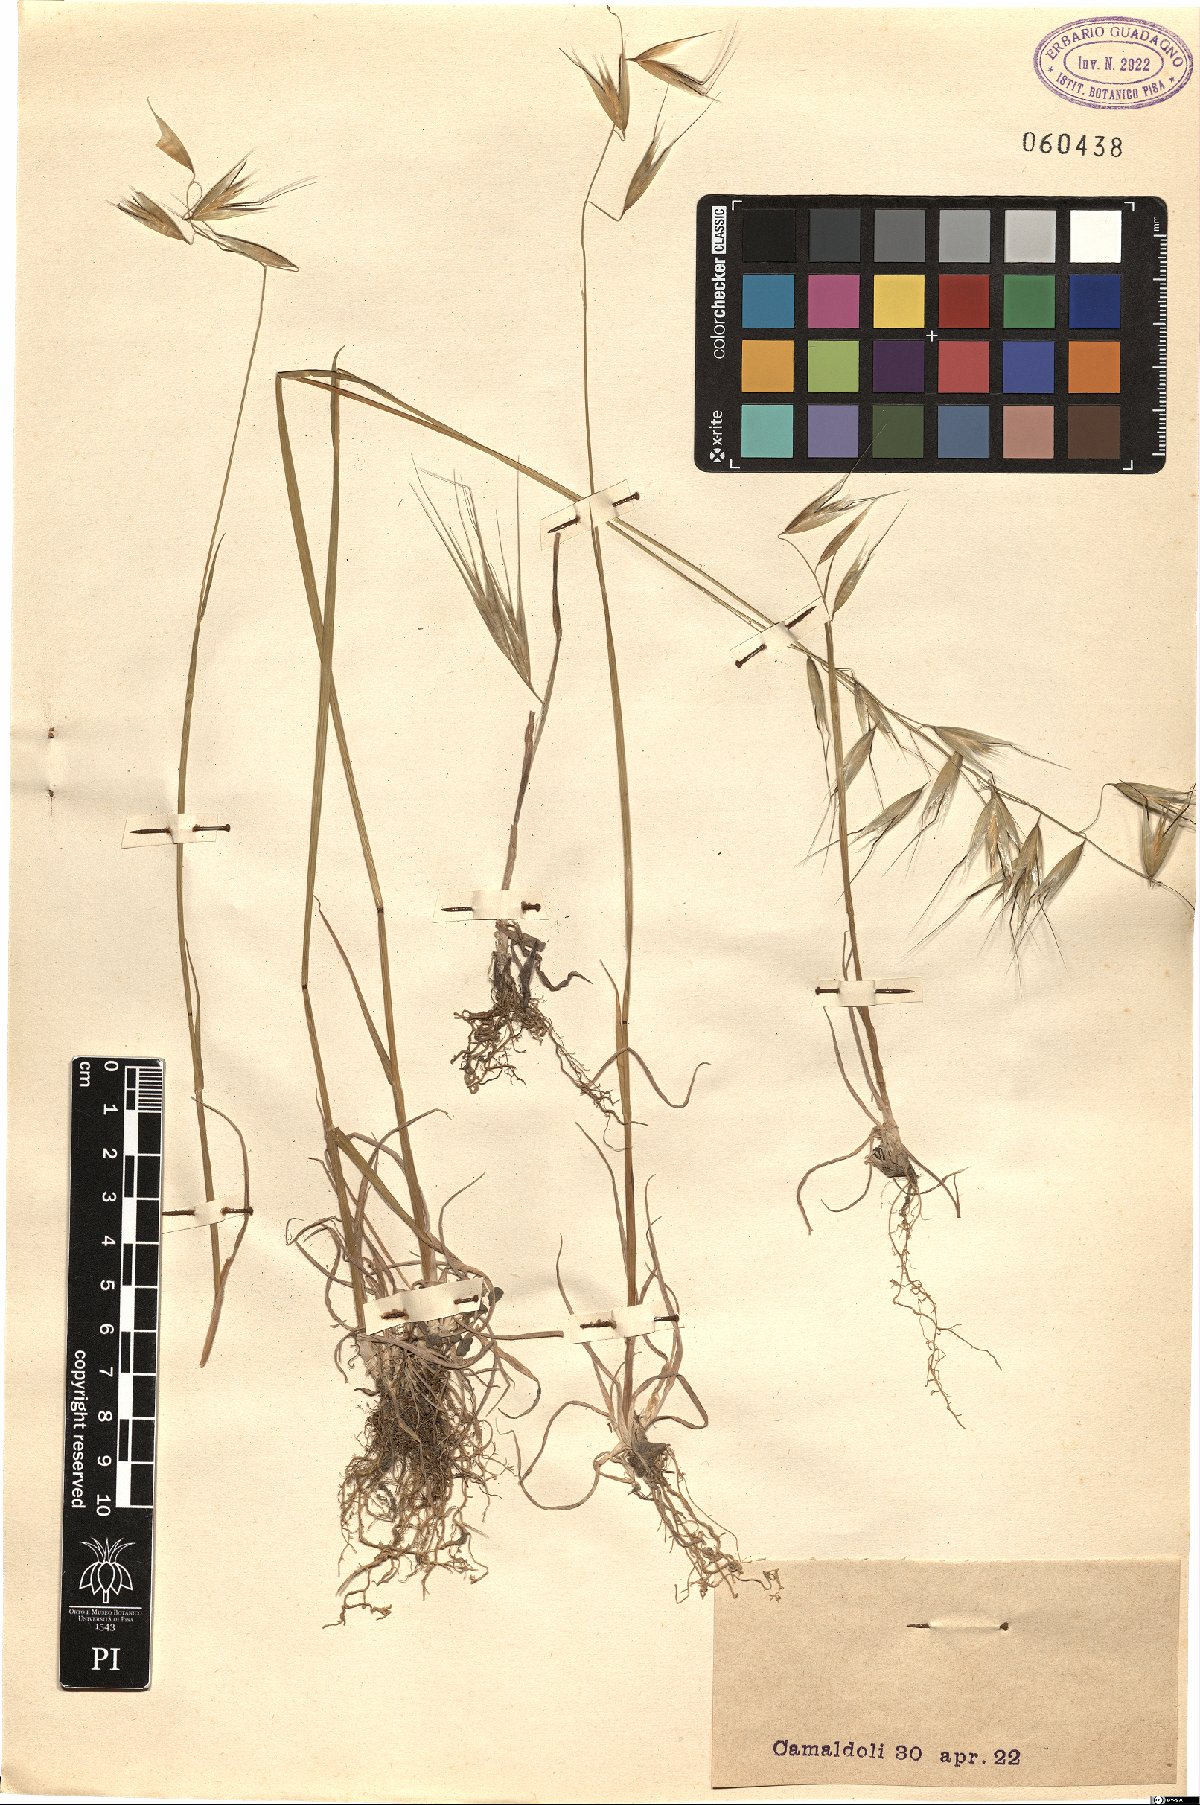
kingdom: Plantae
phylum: Tracheophyta
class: Liliopsida
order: Poales
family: Poaceae
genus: Avena
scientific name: Avena
